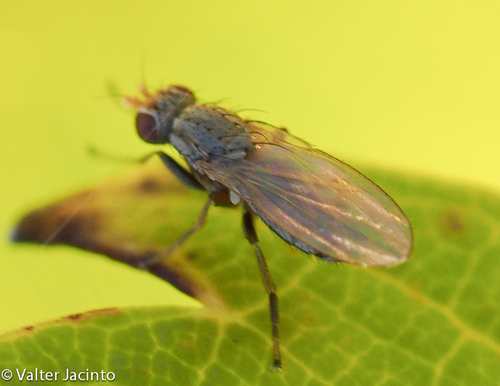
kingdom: Animalia
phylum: Arthropoda
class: Insecta
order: Diptera
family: Heleomyzidae
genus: Trixoscelis
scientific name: Trixoscelis
